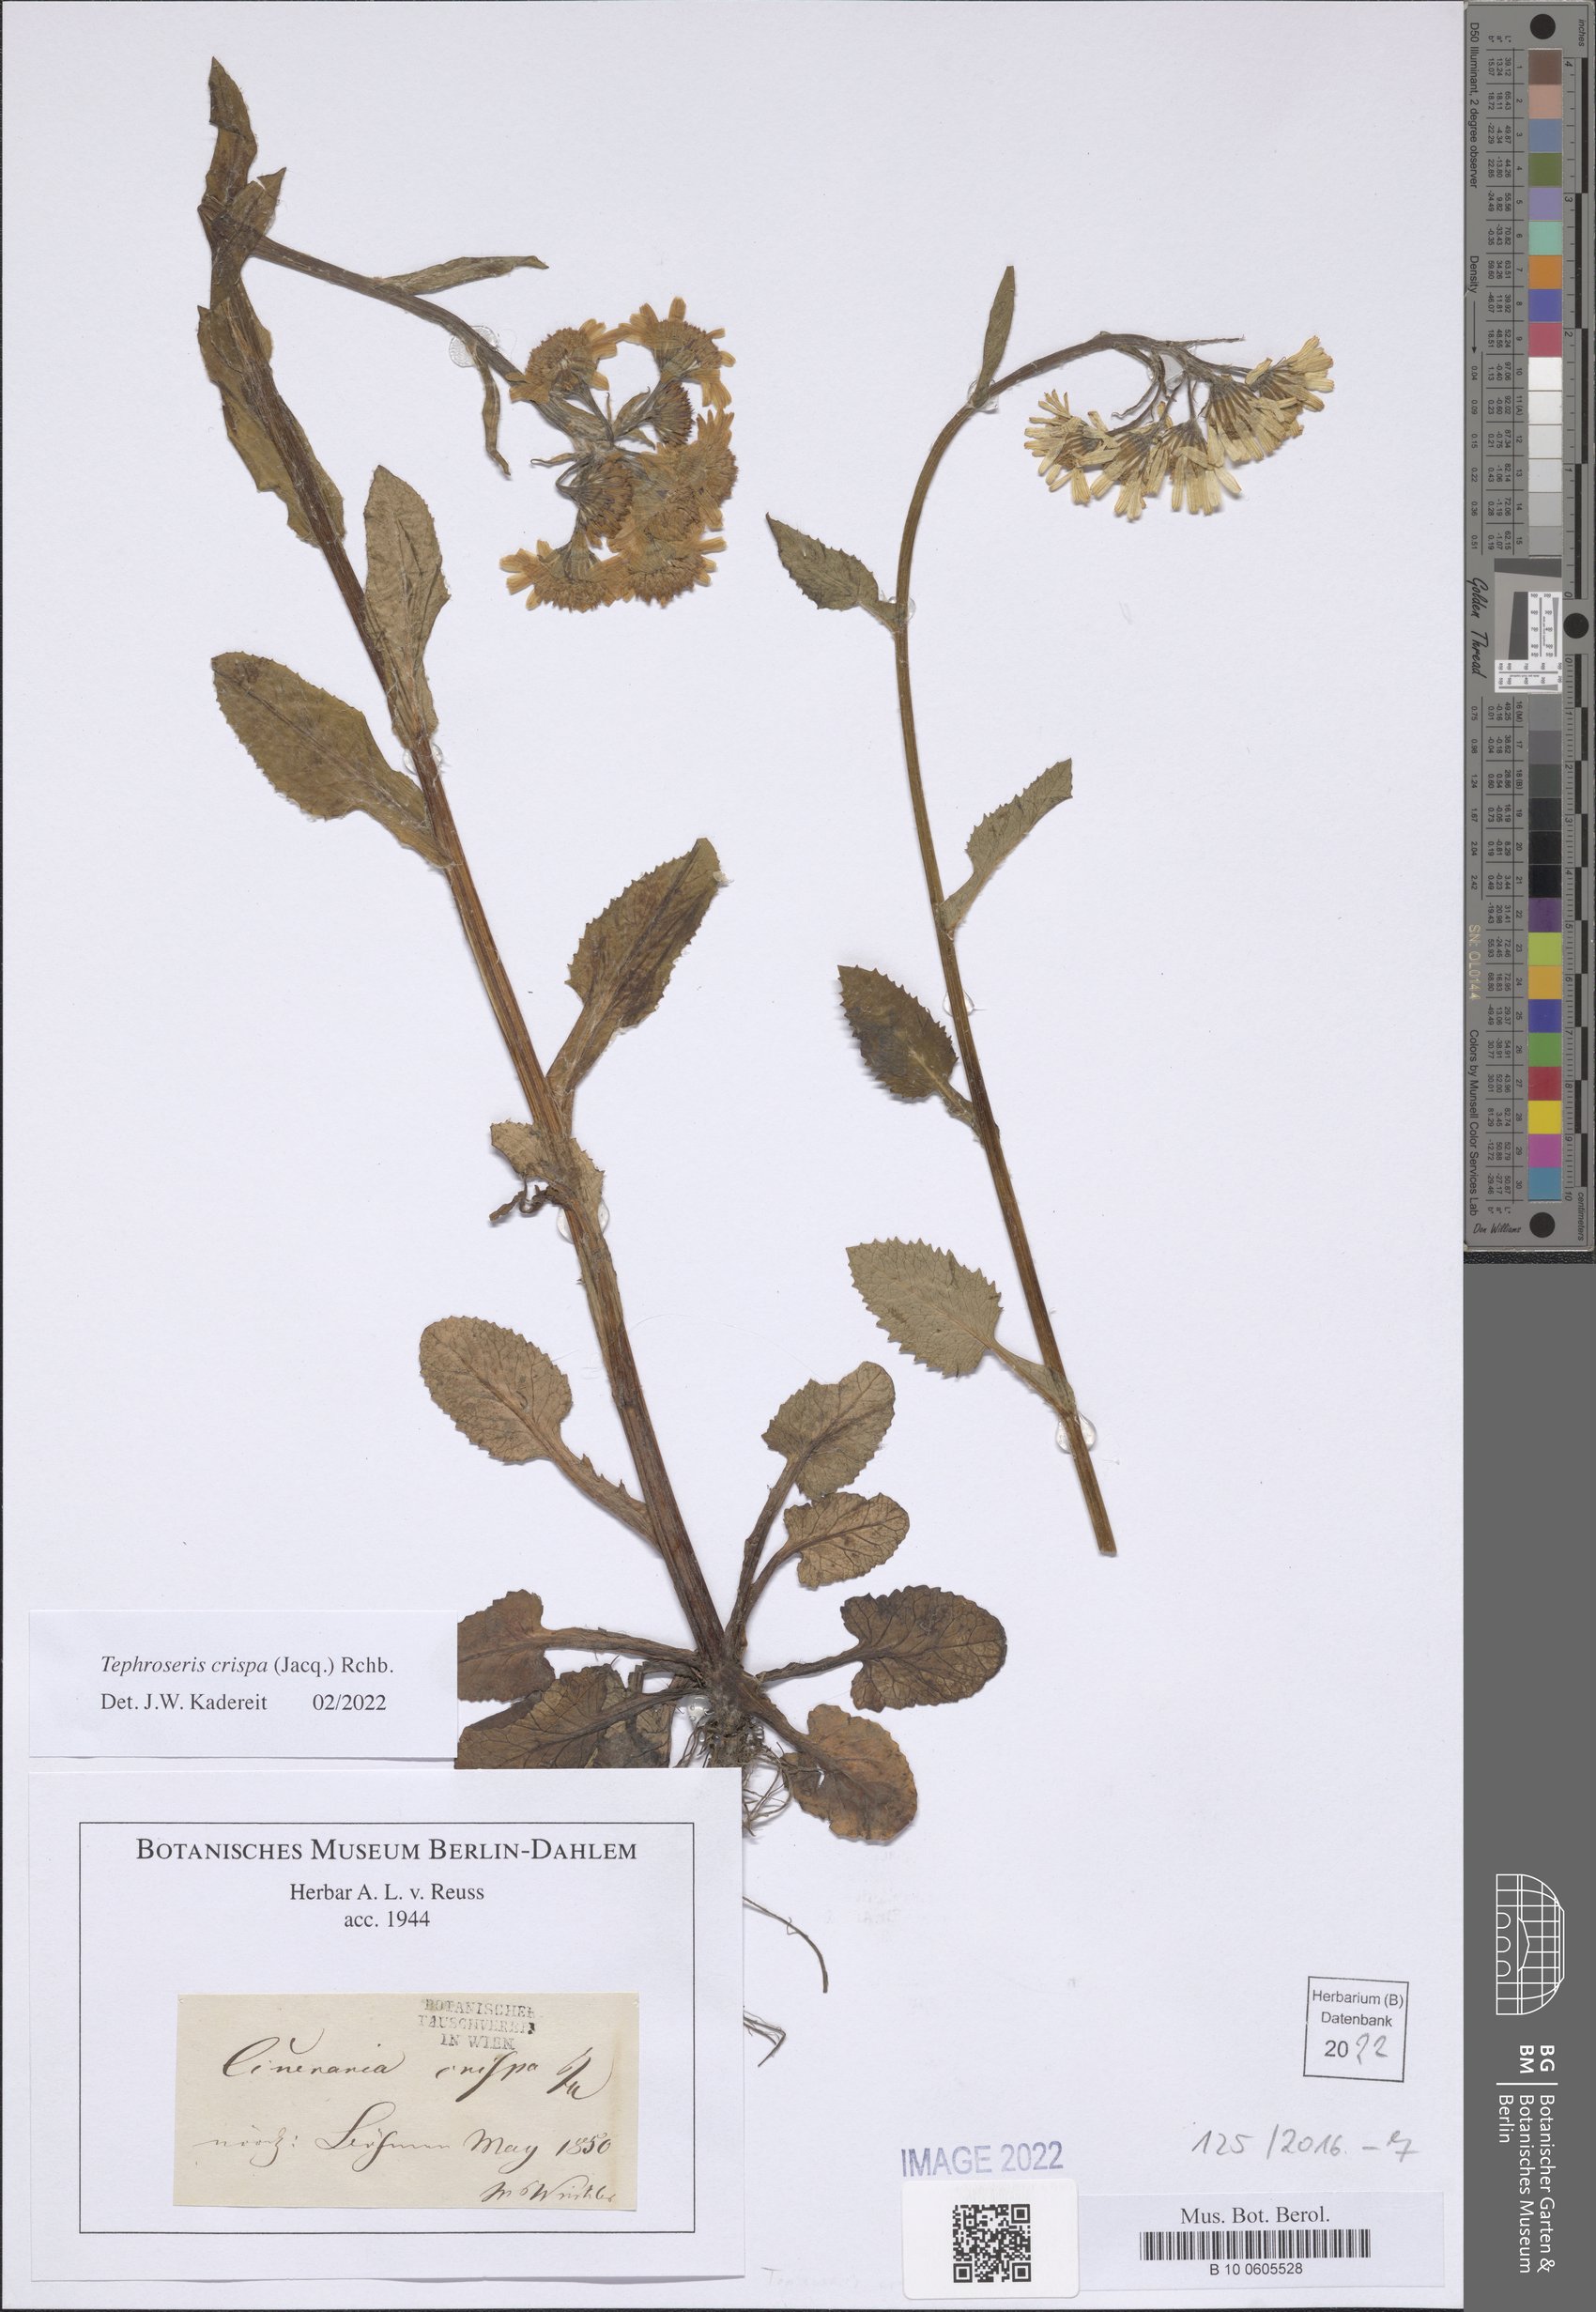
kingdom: Plantae
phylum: Tracheophyta
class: Magnoliopsida
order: Asterales
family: Asteraceae
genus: Tephroseris
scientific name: Tephroseris crispa
